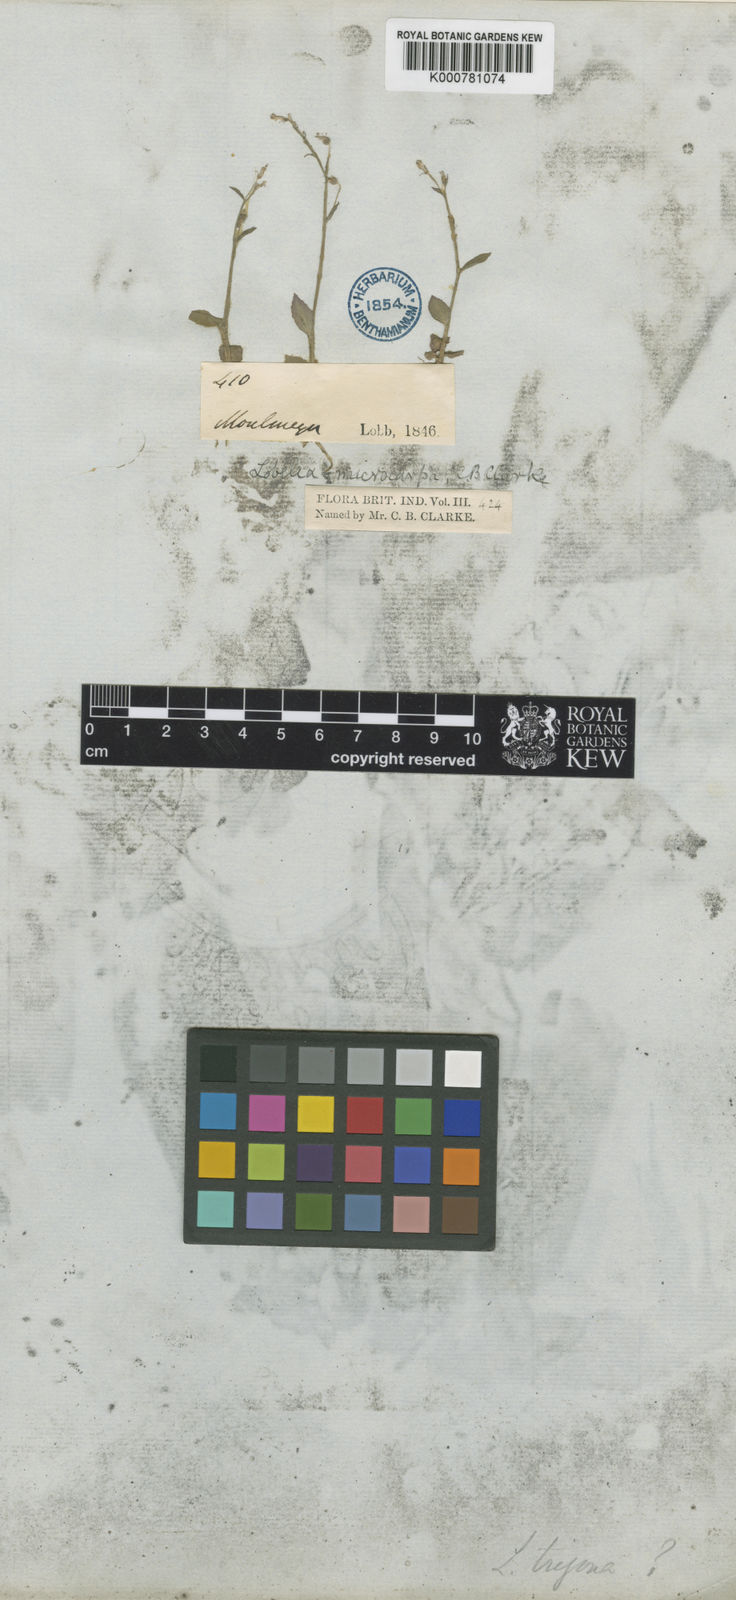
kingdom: Plantae
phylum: Tracheophyta
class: Magnoliopsida
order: Asterales
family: Campanulaceae
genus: Lobelia
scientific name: Lobelia alsinoides
